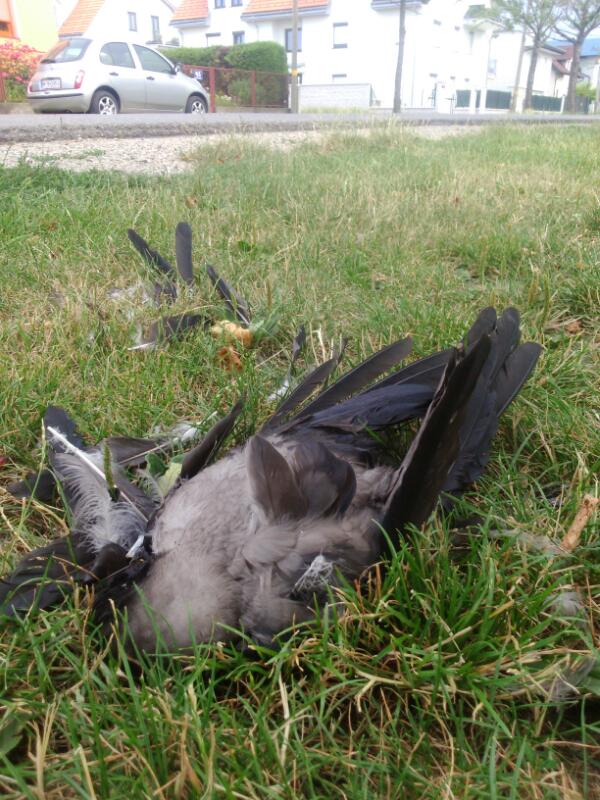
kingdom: Animalia
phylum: Chordata
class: Aves
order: Passeriformes
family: Corvidae
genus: Corvus
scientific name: Corvus corone
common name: Carrion crow
